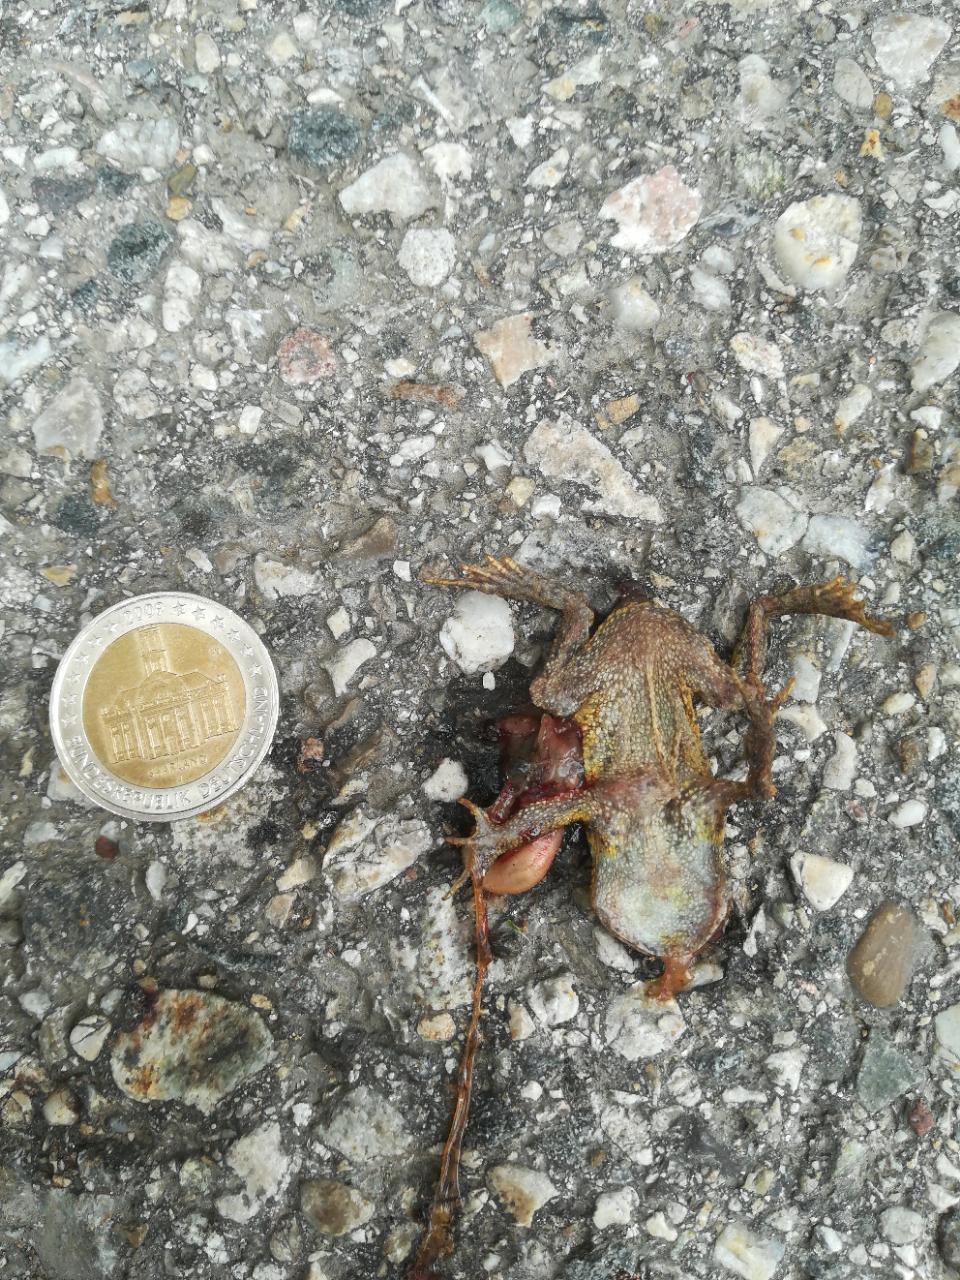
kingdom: Animalia
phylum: Chordata
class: Amphibia
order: Anura
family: Bufonidae
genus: Bufo
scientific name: Bufo bufo
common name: Common toad
